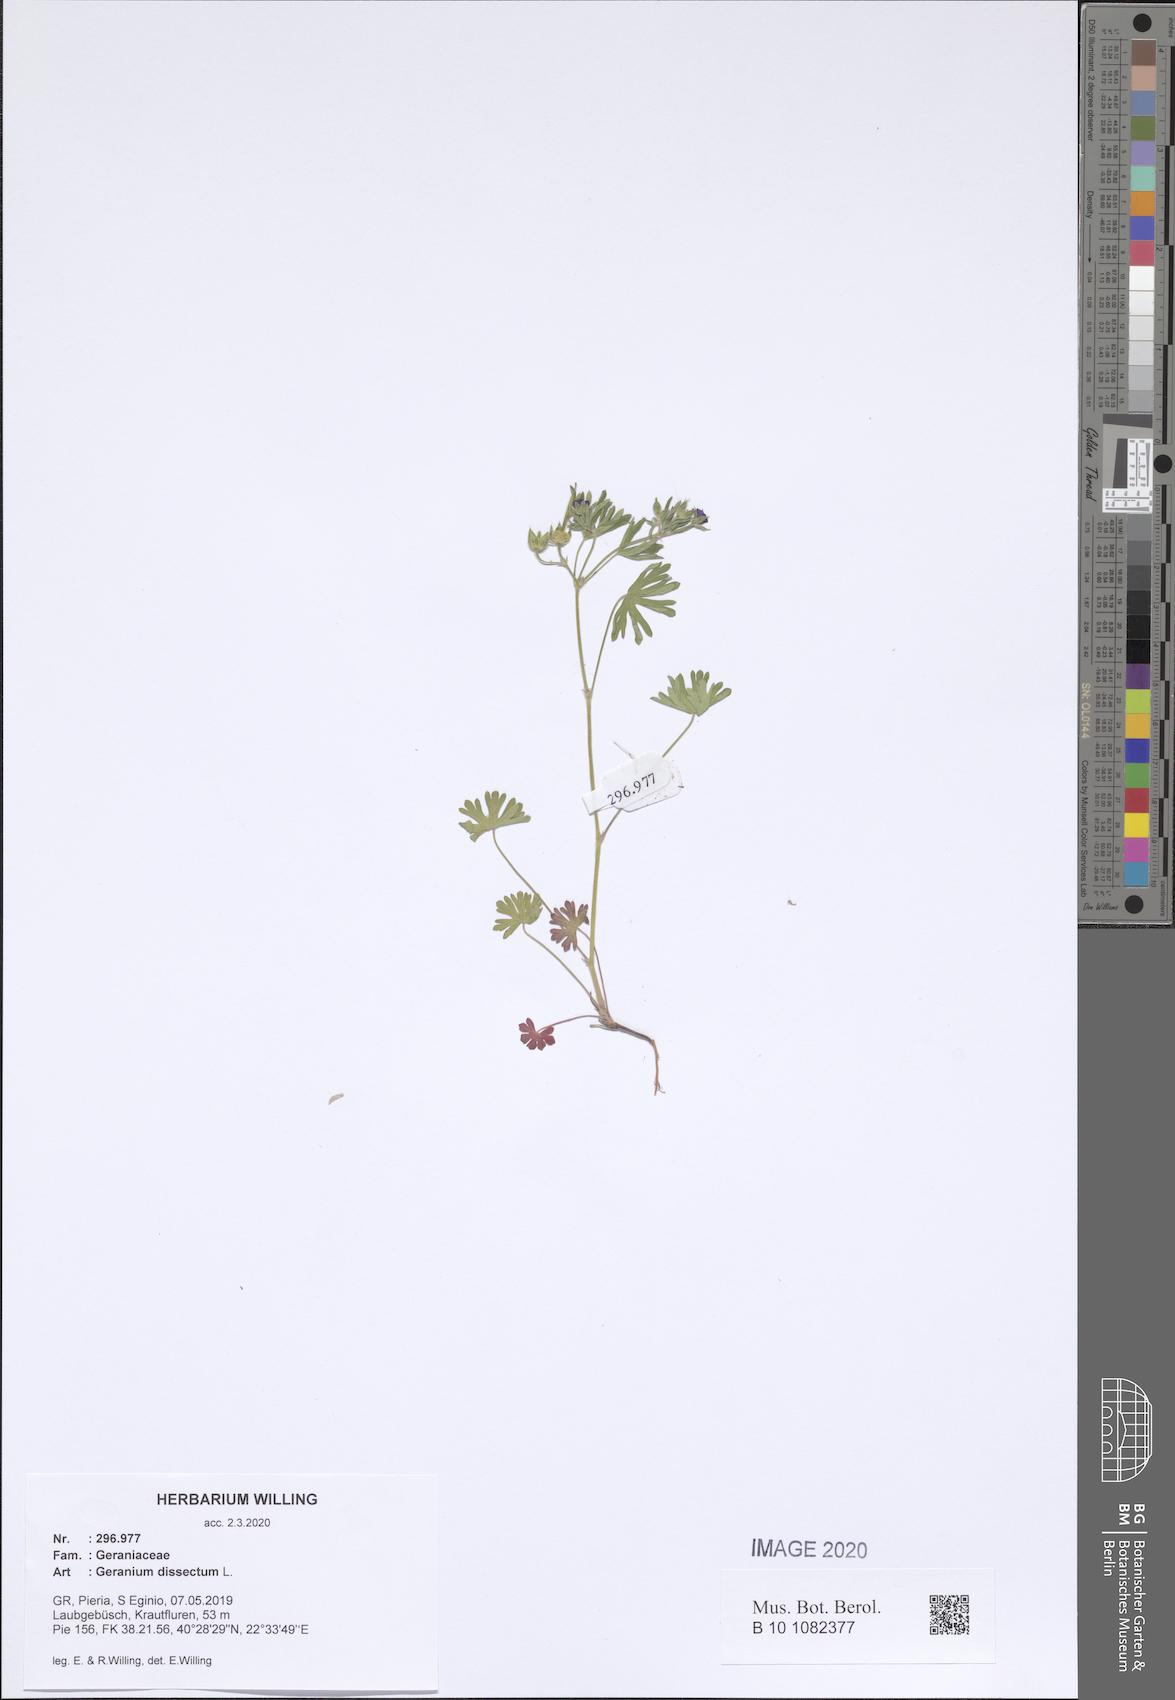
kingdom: Plantae
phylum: Tracheophyta
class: Magnoliopsida
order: Geraniales
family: Geraniaceae
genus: Geranium
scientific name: Geranium dissectum
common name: Cut-leaved crane's-bill
